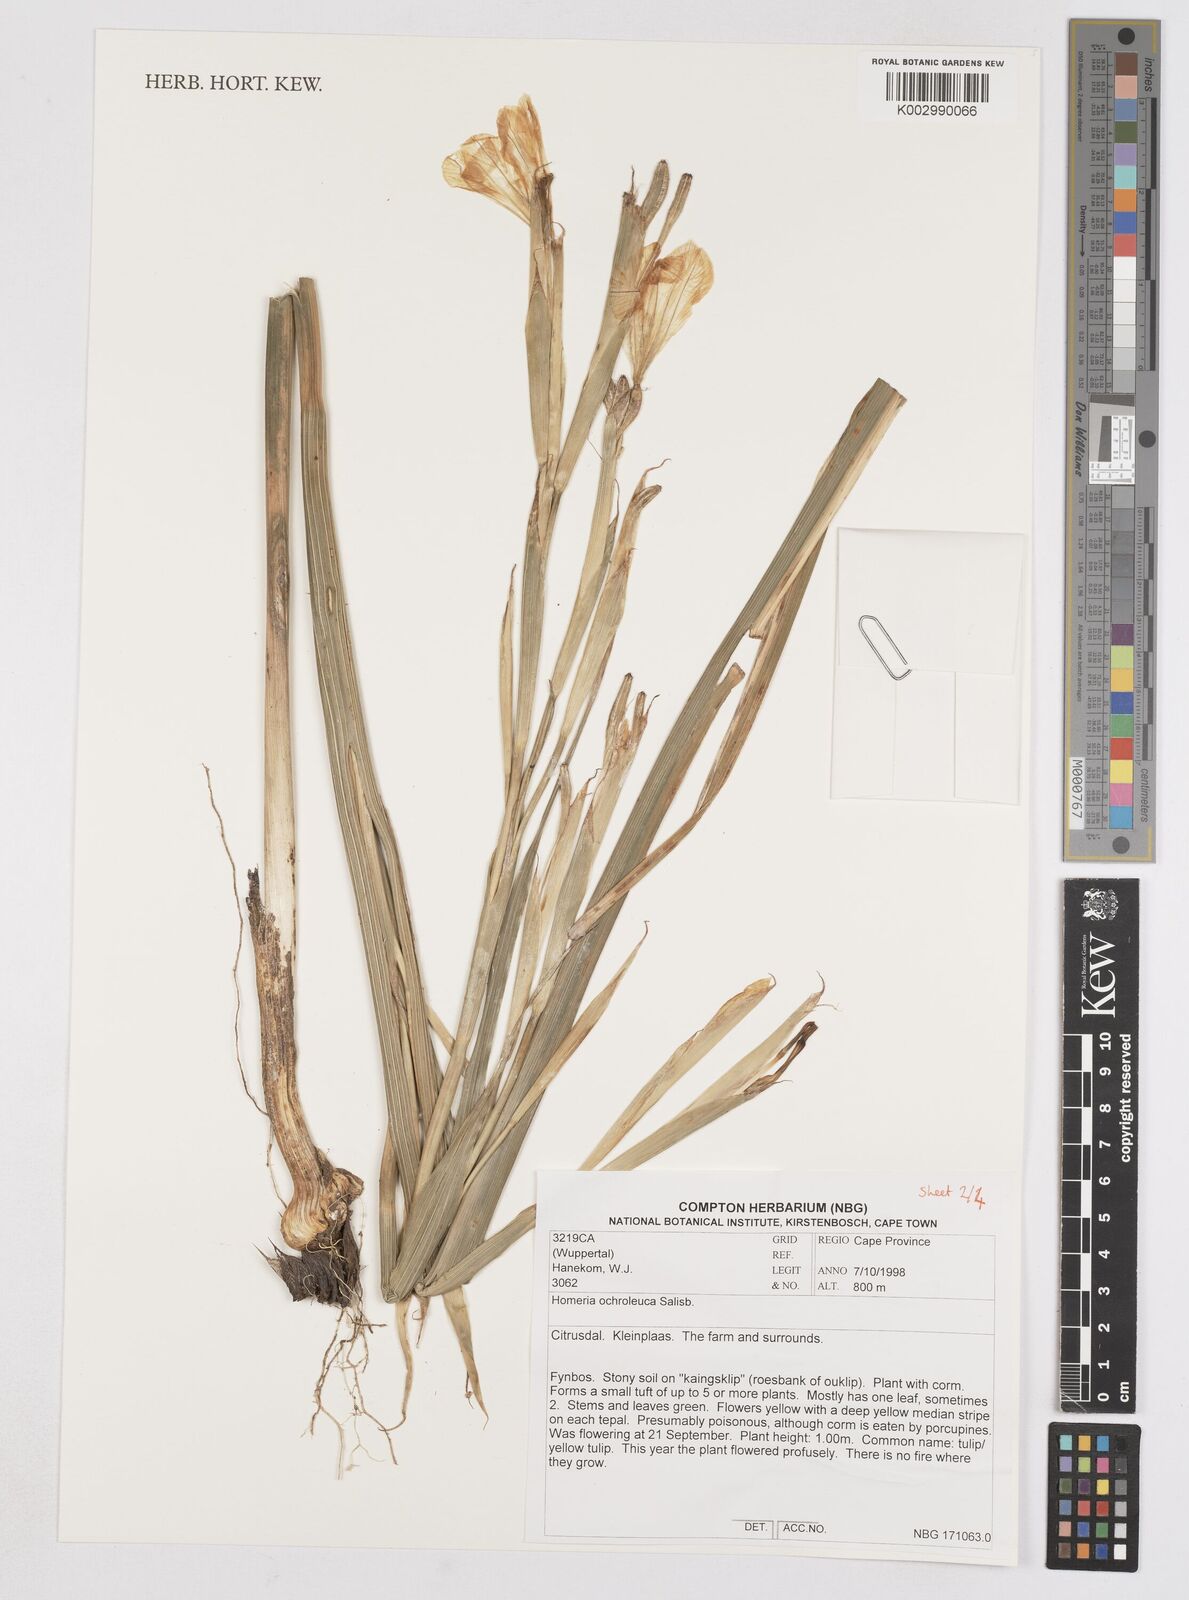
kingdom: Plantae
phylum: Tracheophyta
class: Liliopsida
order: Asparagales
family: Iridaceae
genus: Moraea
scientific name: Moraea ochroleuca
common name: Red tulp
